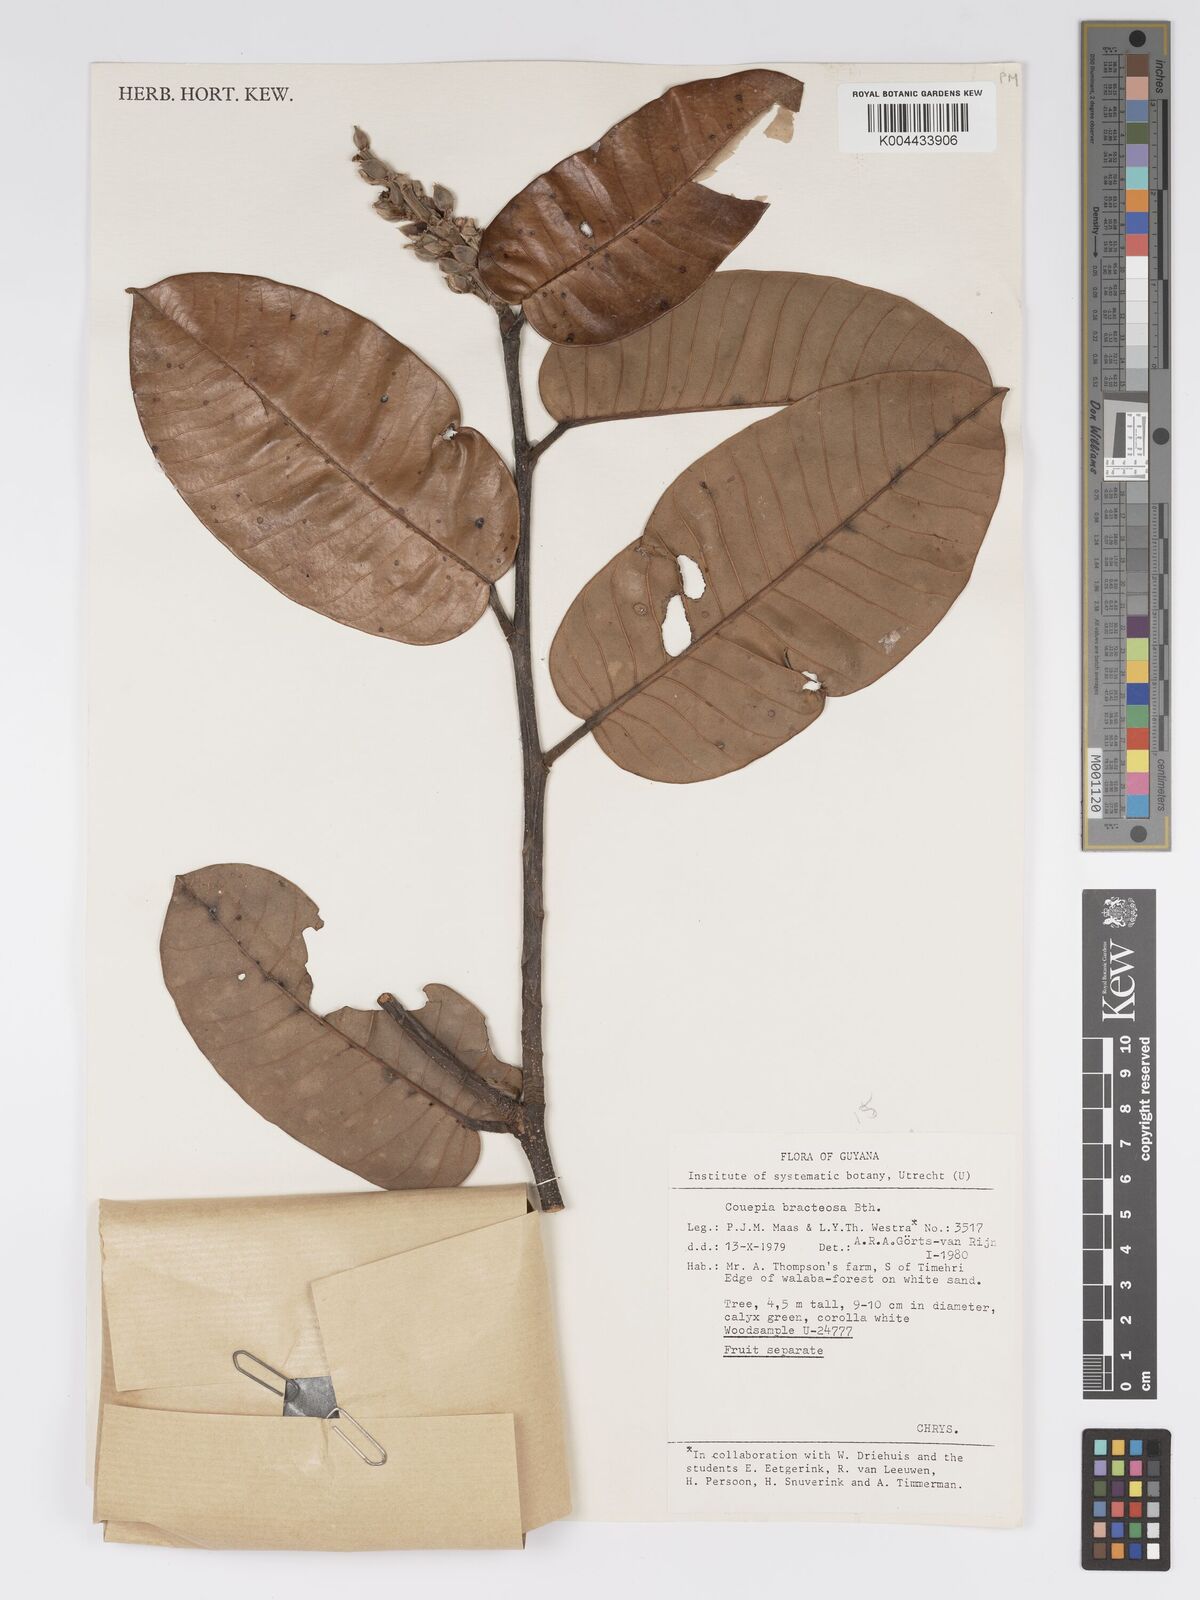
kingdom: Plantae
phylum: Tracheophyta
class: Magnoliopsida
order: Malpighiales
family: Chrysobalanaceae
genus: Couepia
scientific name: Couepia bracteosa
